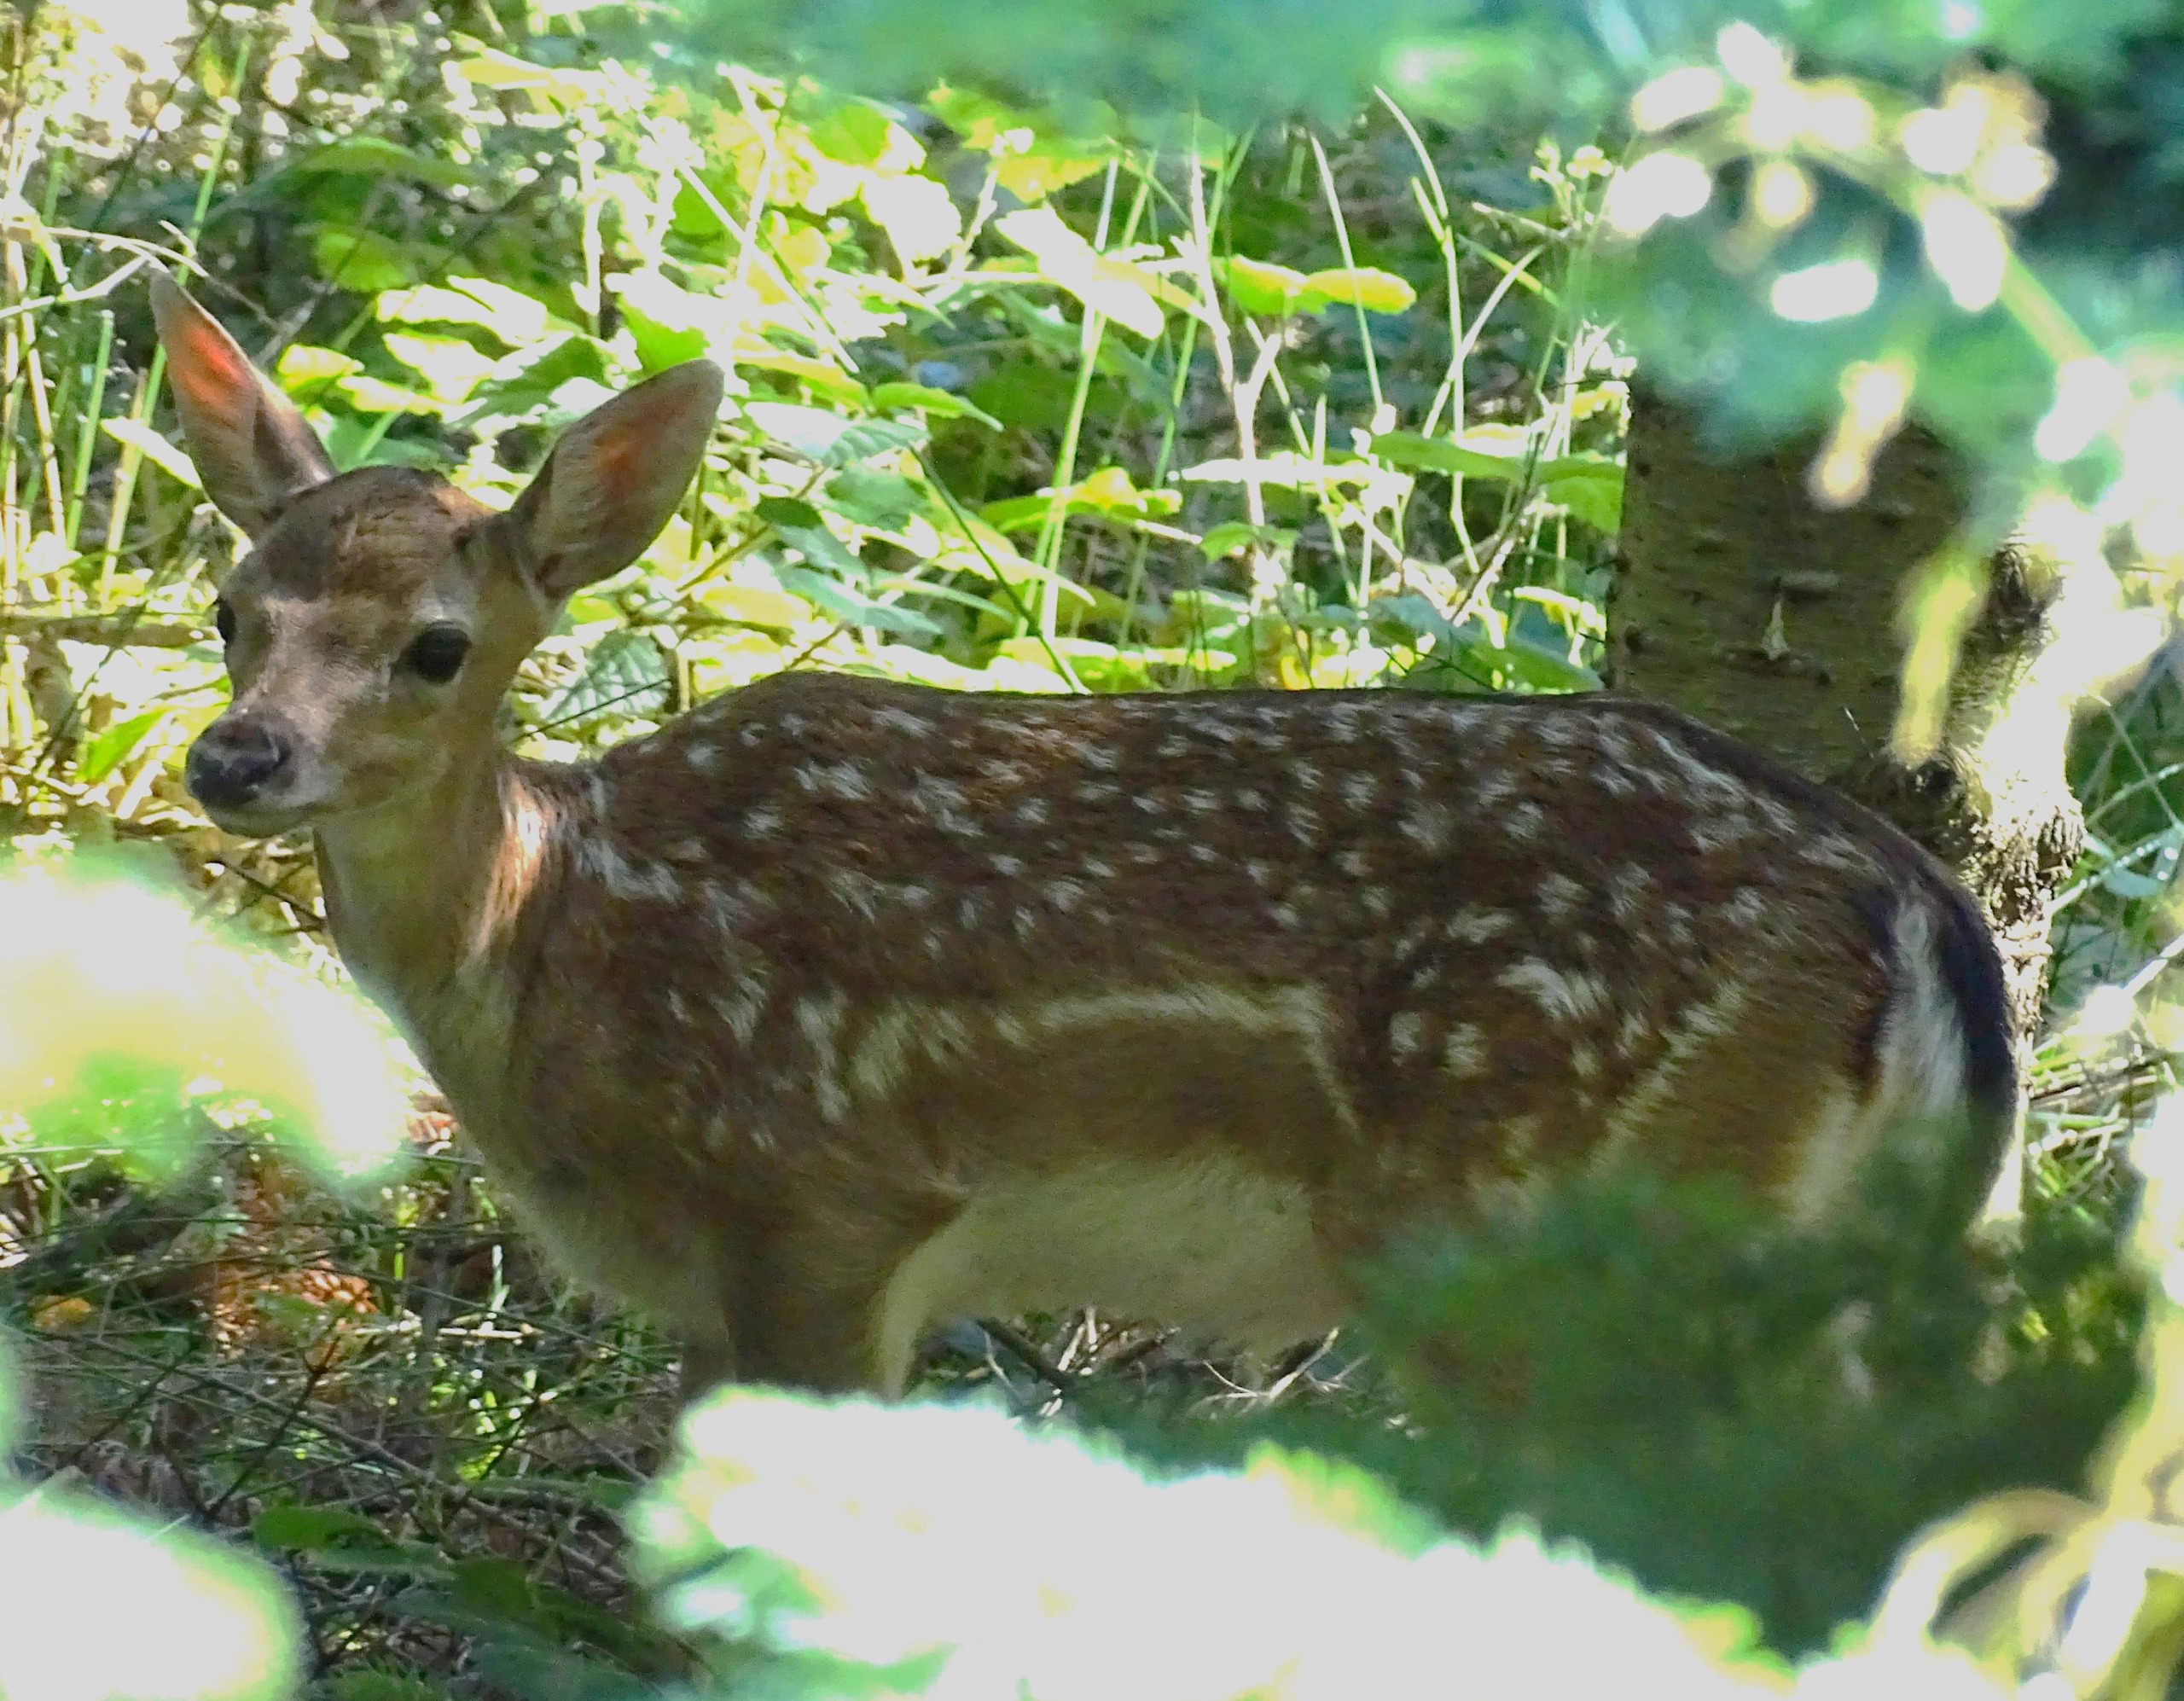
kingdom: Animalia
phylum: Chordata
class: Mammalia
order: Artiodactyla
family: Cervidae
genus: Dama
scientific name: Dama dama
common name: Dådyr
